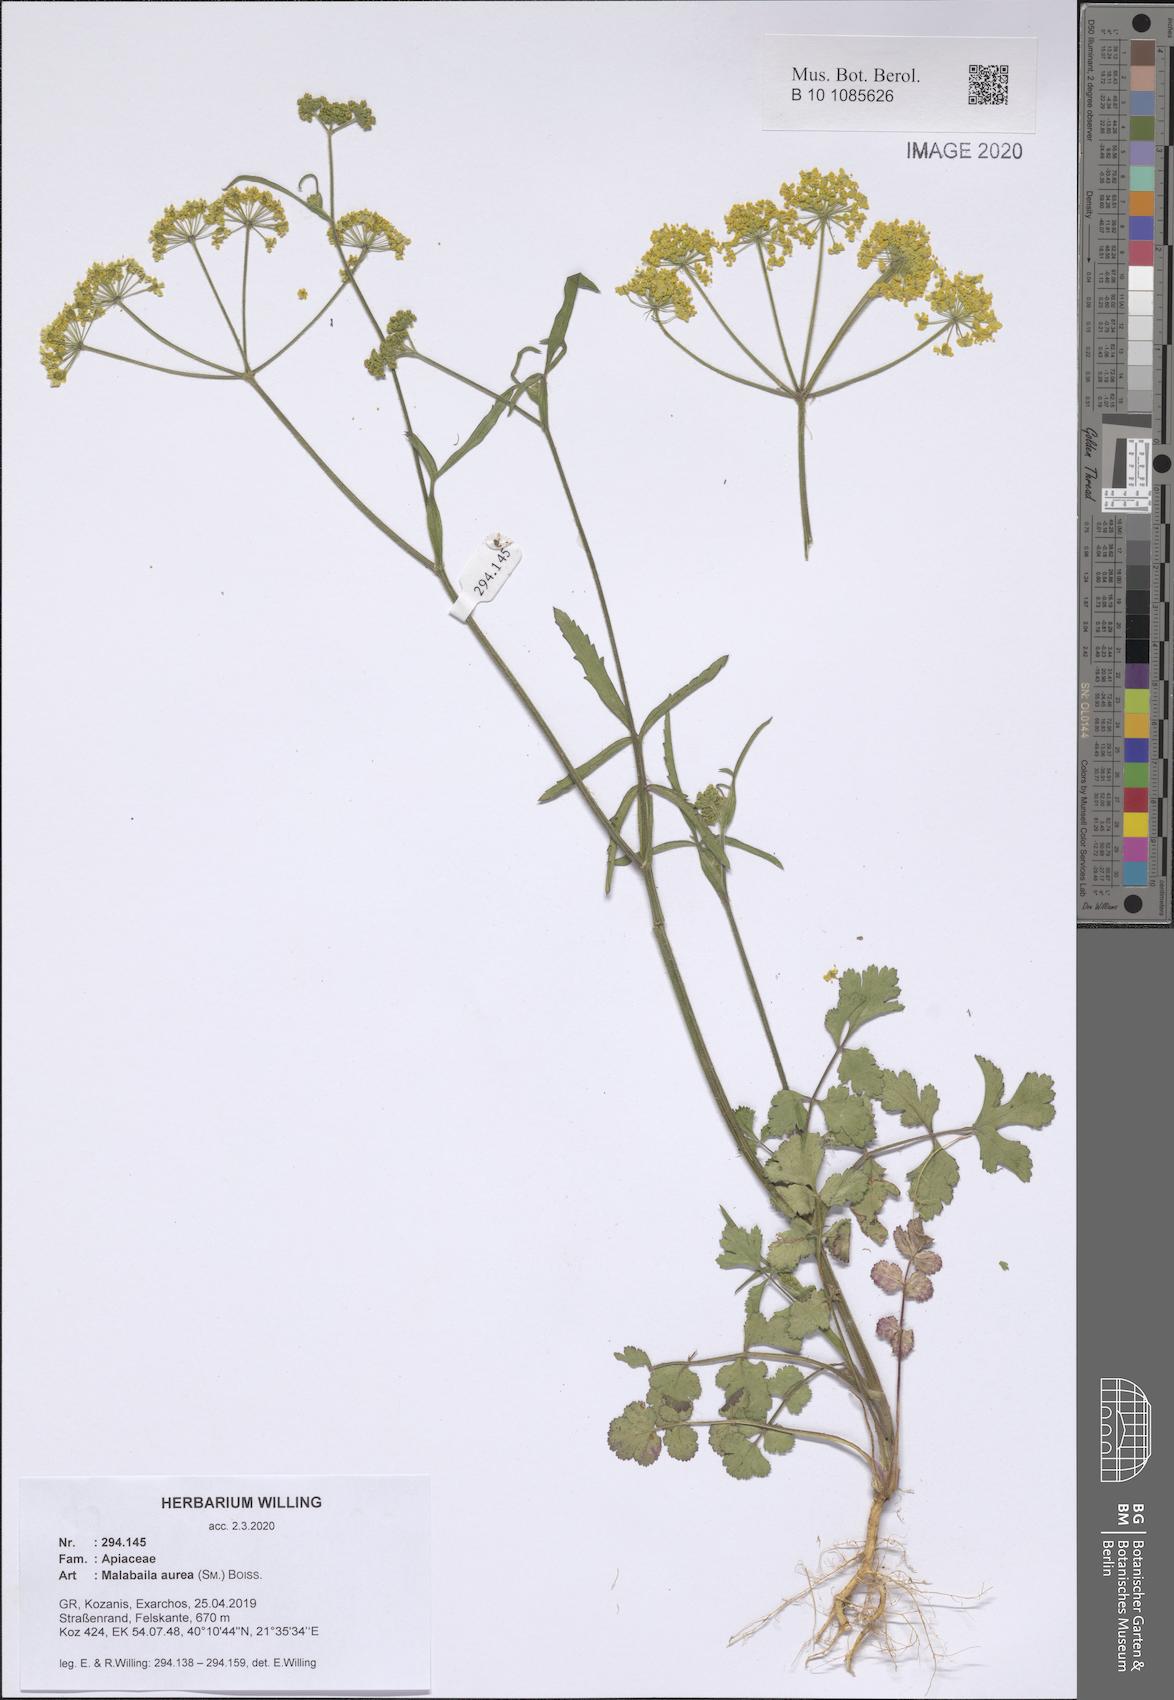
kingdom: Plantae
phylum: Tracheophyta
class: Magnoliopsida
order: Apiales
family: Apiaceae
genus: Leiotulus
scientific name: Leiotulus aureus
